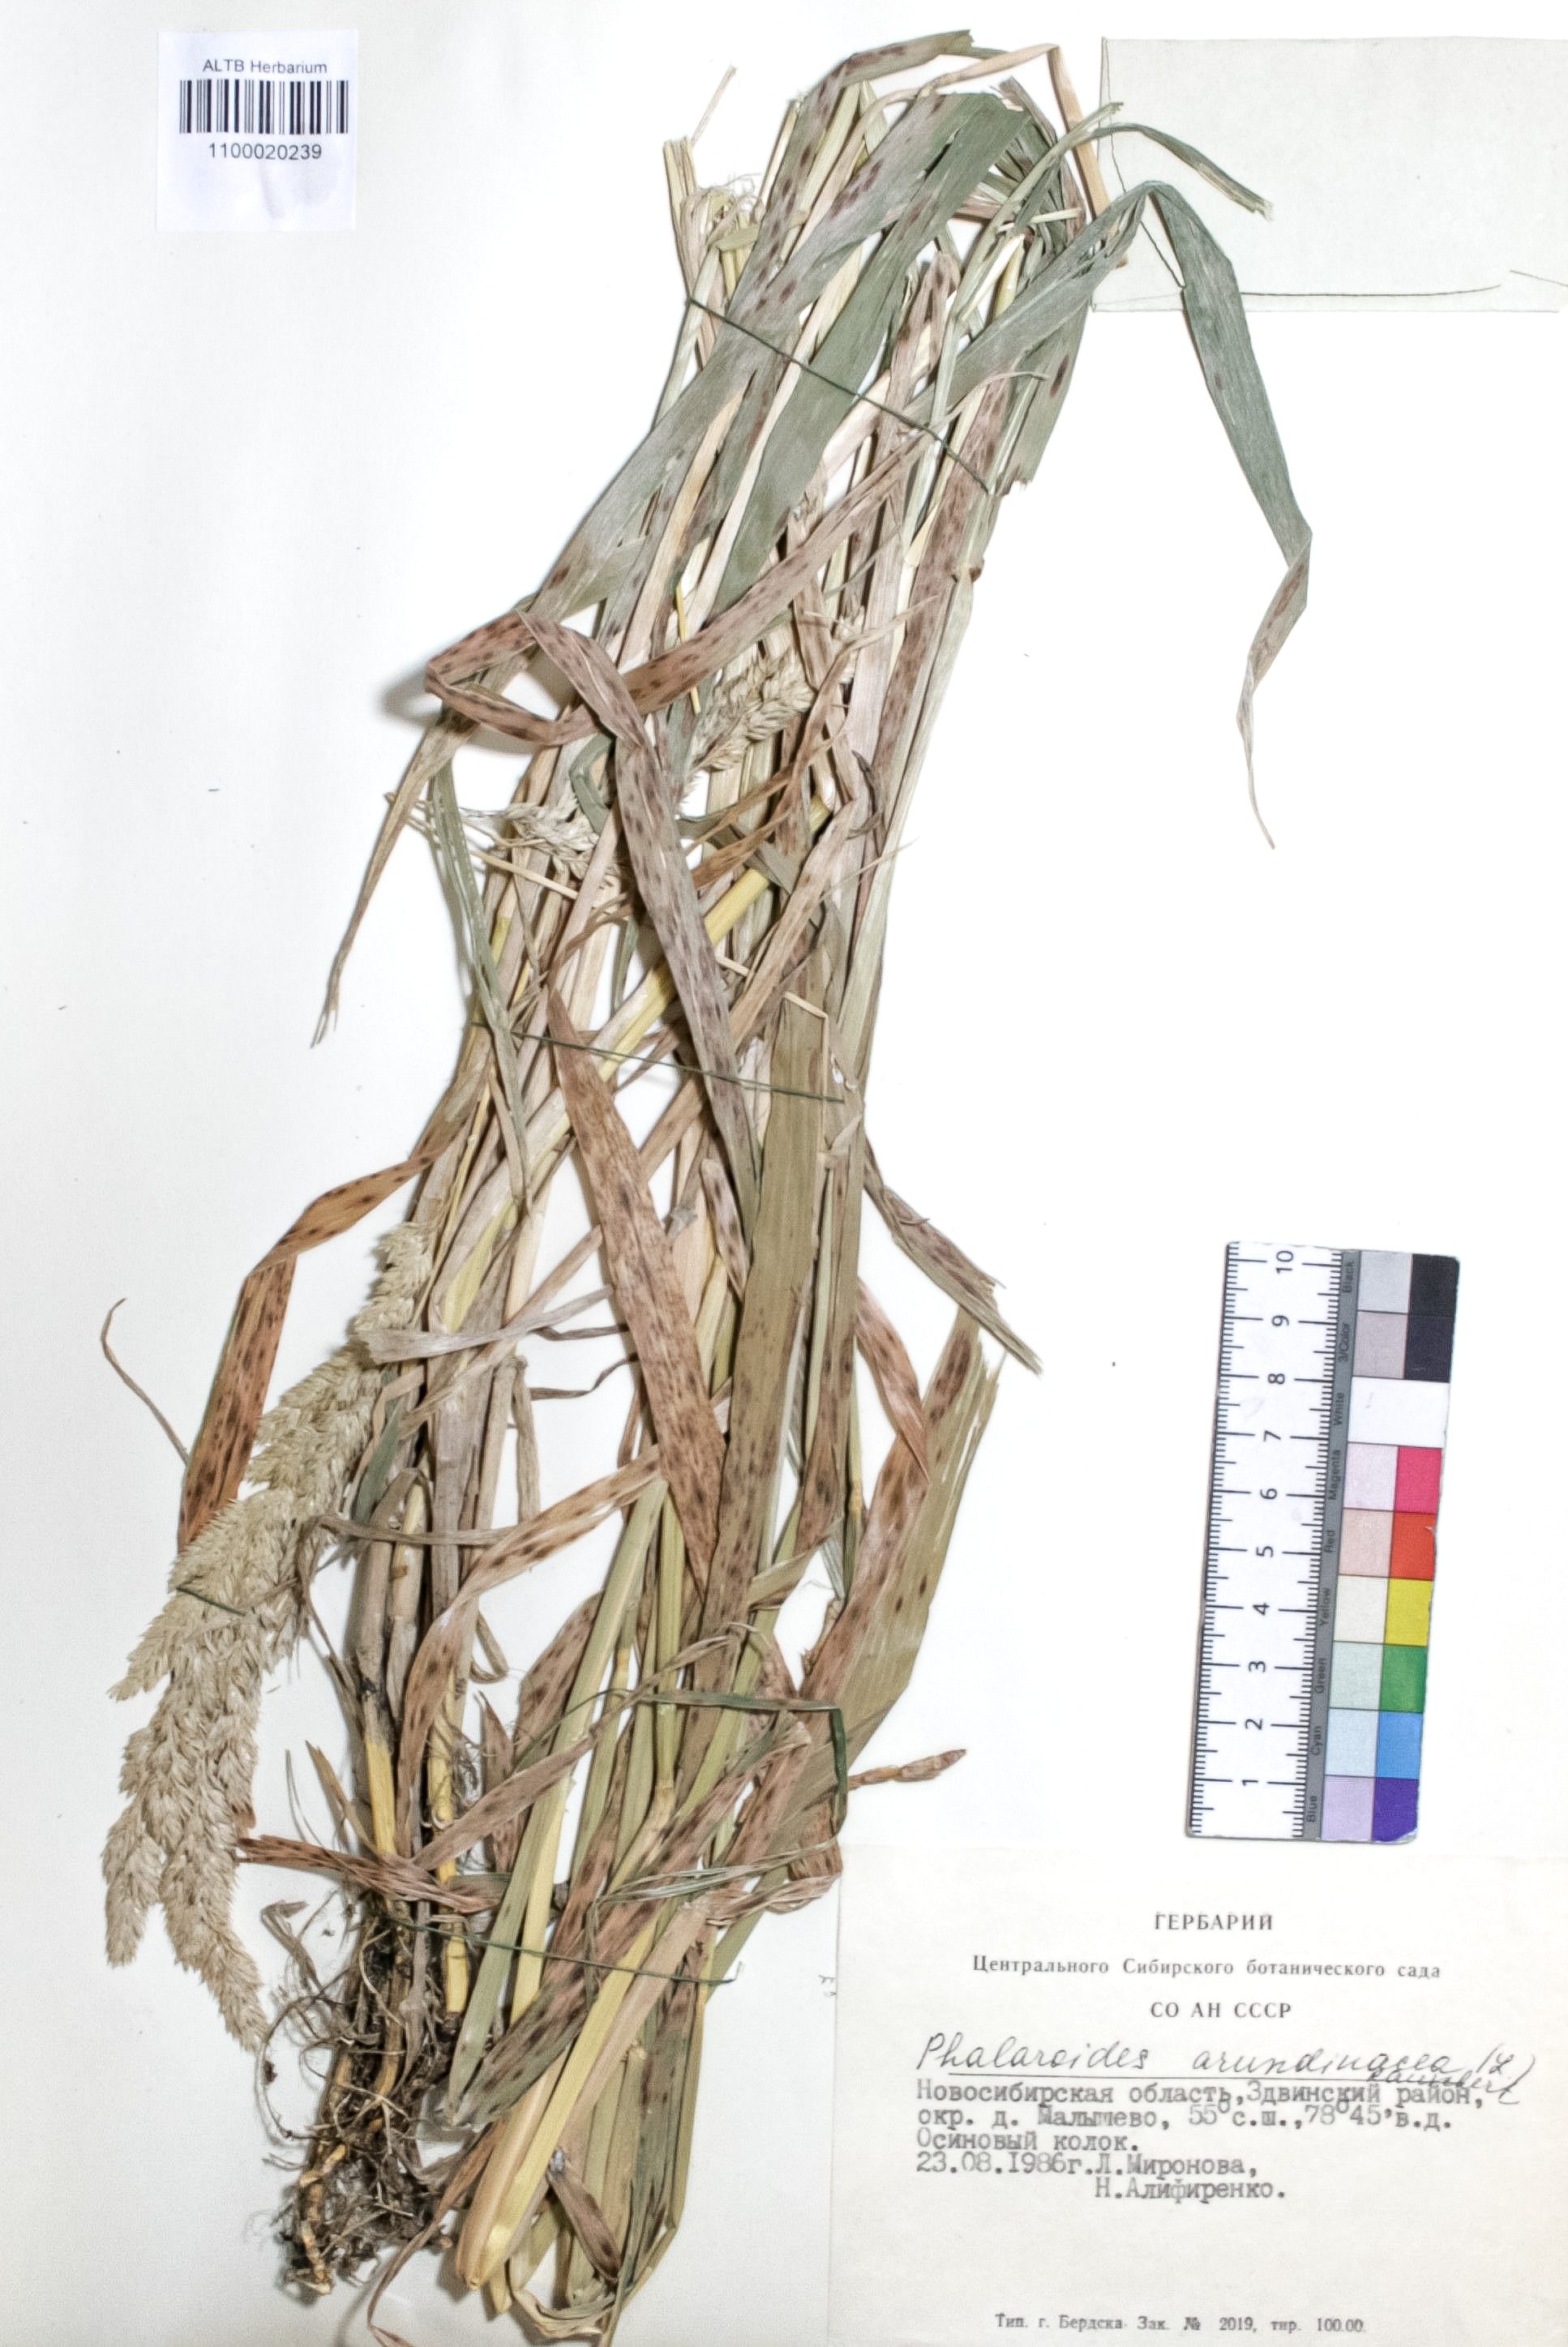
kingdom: Plantae
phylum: Tracheophyta
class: Liliopsida
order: Poales
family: Poaceae
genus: Phalaris
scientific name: Phalaris arundinacea
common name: Reed canary-grass
